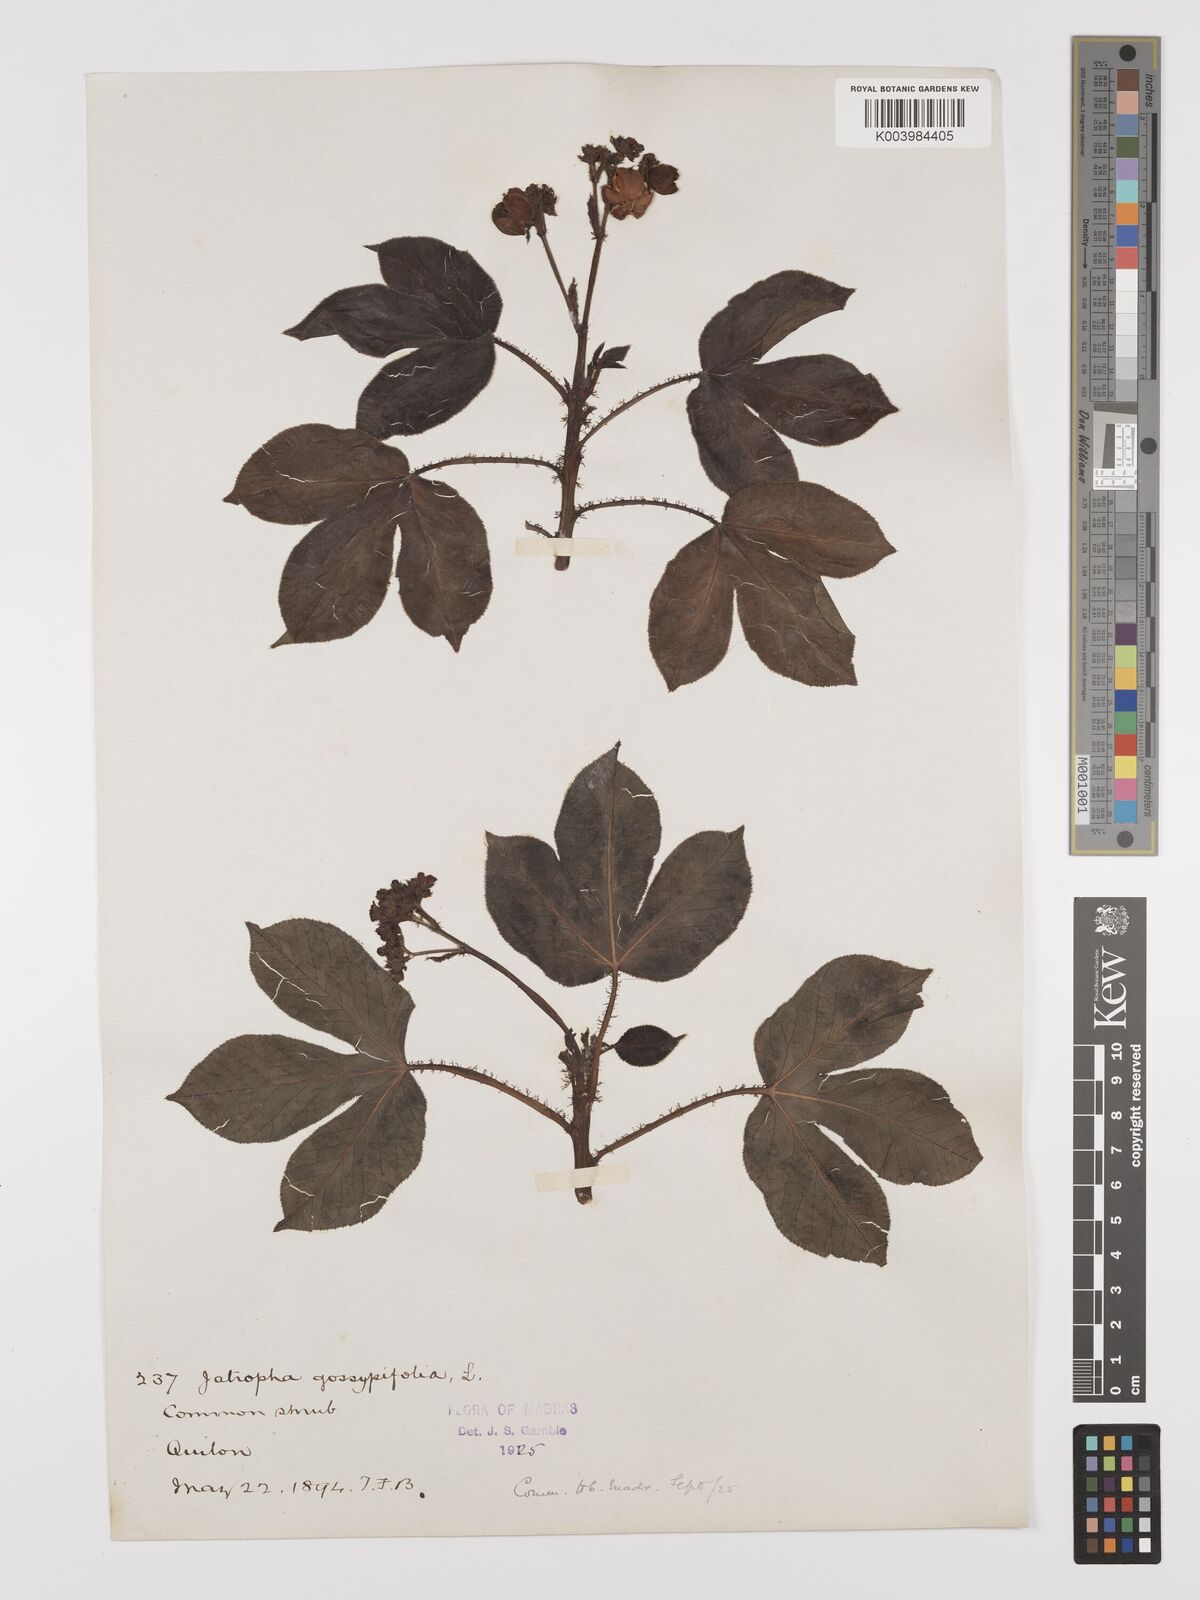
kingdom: Plantae
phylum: Tracheophyta
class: Magnoliopsida
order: Malpighiales
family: Euphorbiaceae
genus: Jatropha
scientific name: Jatropha gossypiifolia
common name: Bellyache bush
